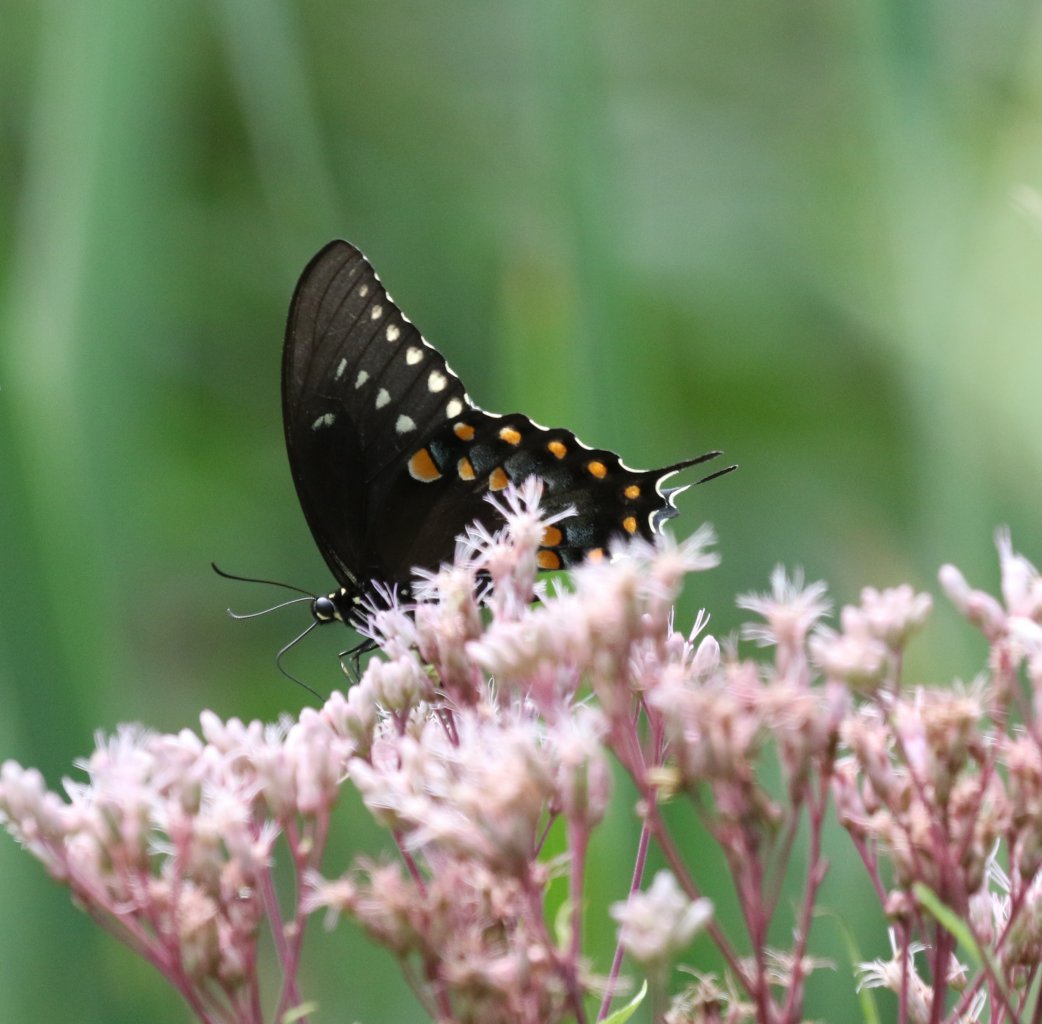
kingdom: Animalia
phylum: Arthropoda
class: Insecta
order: Lepidoptera
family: Papilionidae
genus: Pterourus
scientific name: Pterourus troilus
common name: Spicebush Swallowtail
